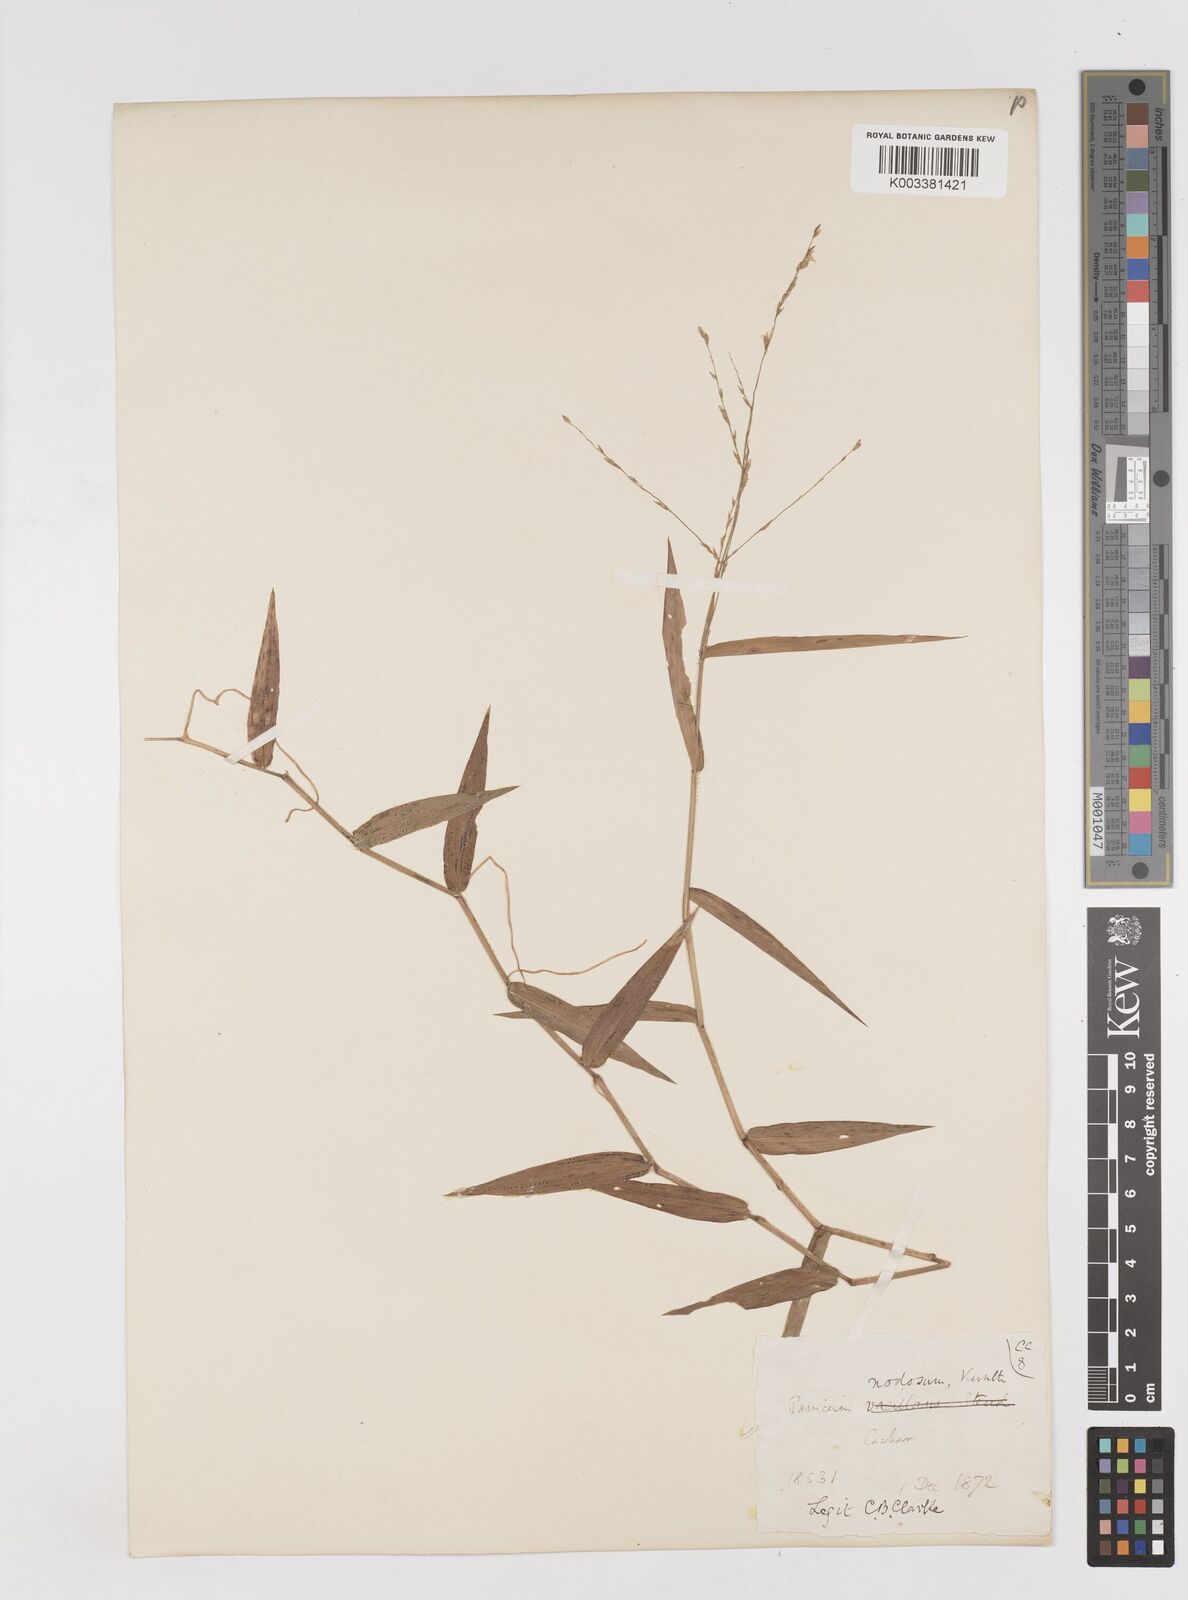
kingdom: Plantae
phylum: Tracheophyta
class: Liliopsida
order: Poales
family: Poaceae
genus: Ottochloa
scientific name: Ottochloa nodosa
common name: Slender-panic grass
